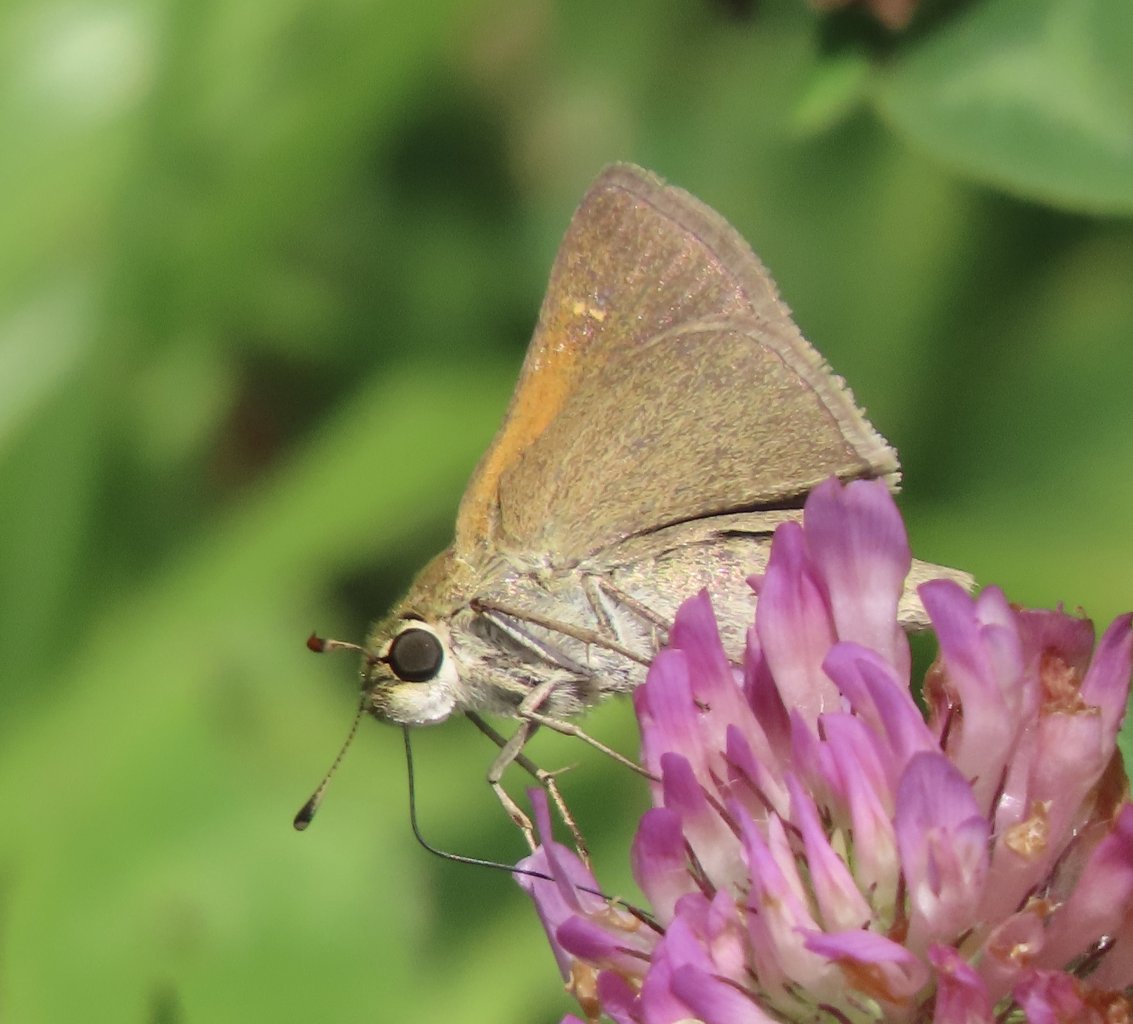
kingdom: Animalia
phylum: Arthropoda
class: Insecta
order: Lepidoptera
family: Hesperiidae
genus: Polites
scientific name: Polites themistocles
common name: Tawny-edged Skipper
